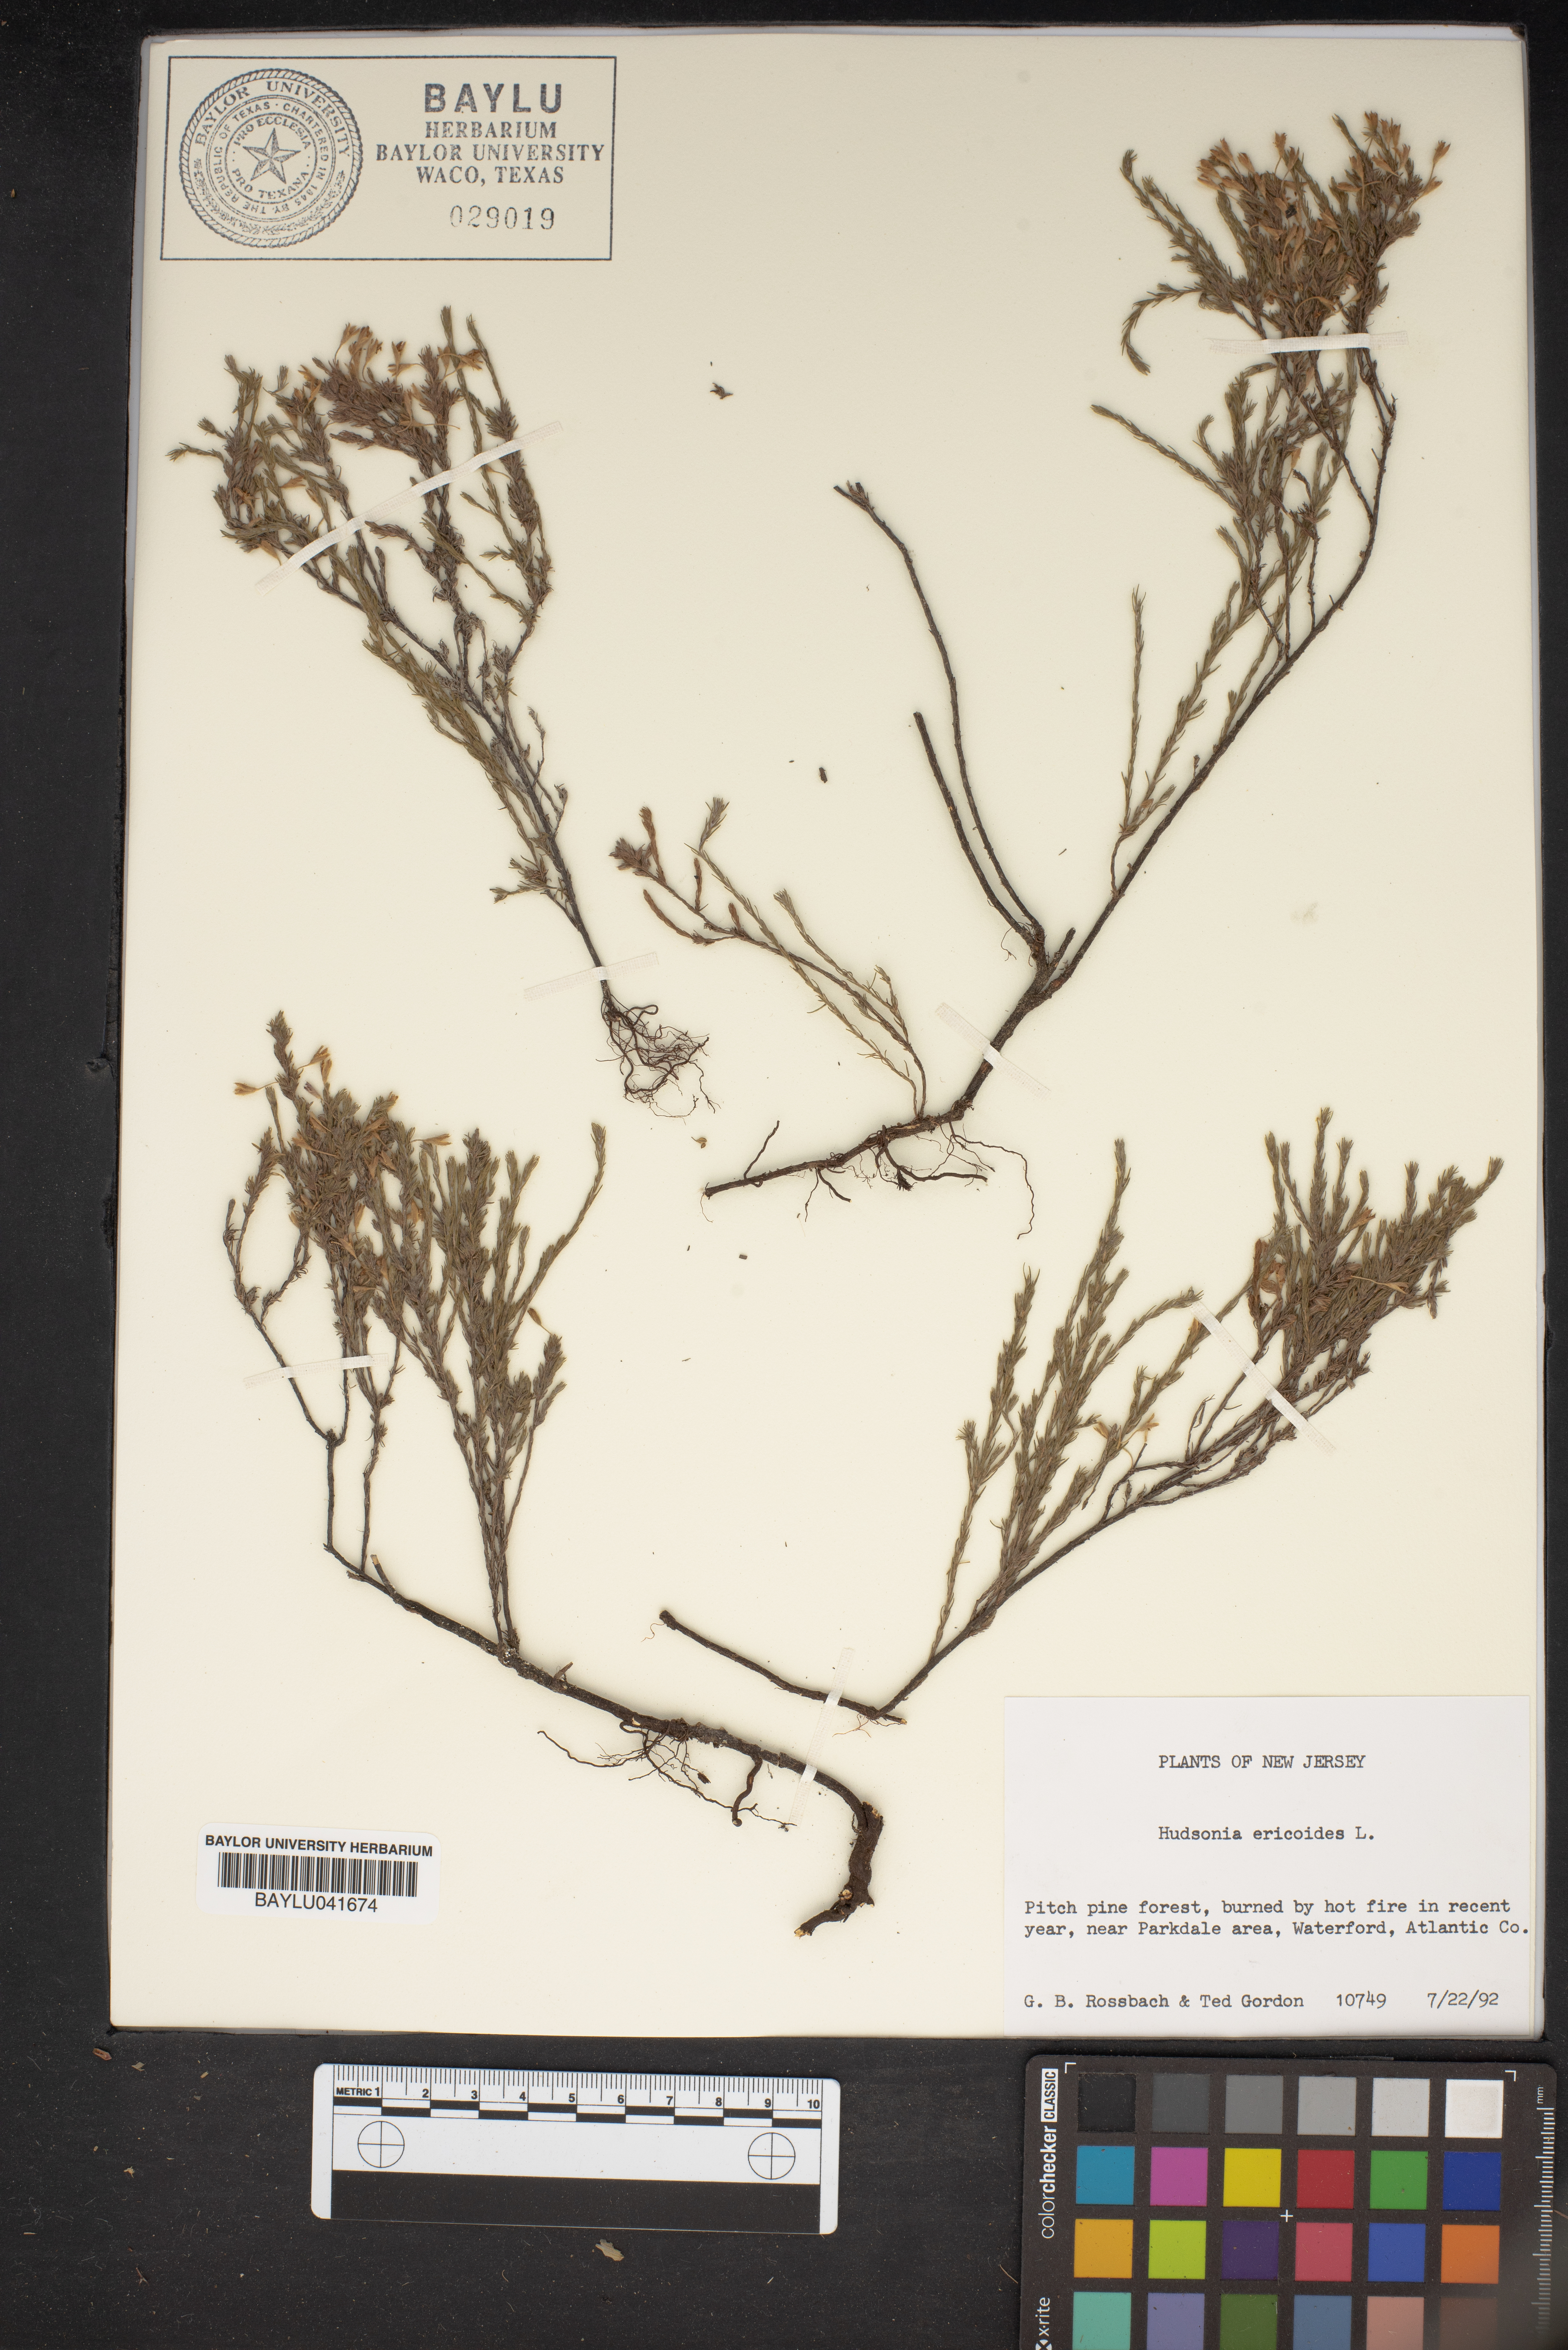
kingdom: Plantae
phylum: Tracheophyta
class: Magnoliopsida
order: Malvales
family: Cistaceae
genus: Hudsonia
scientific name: Hudsonia ericoides
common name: Golden-heather
